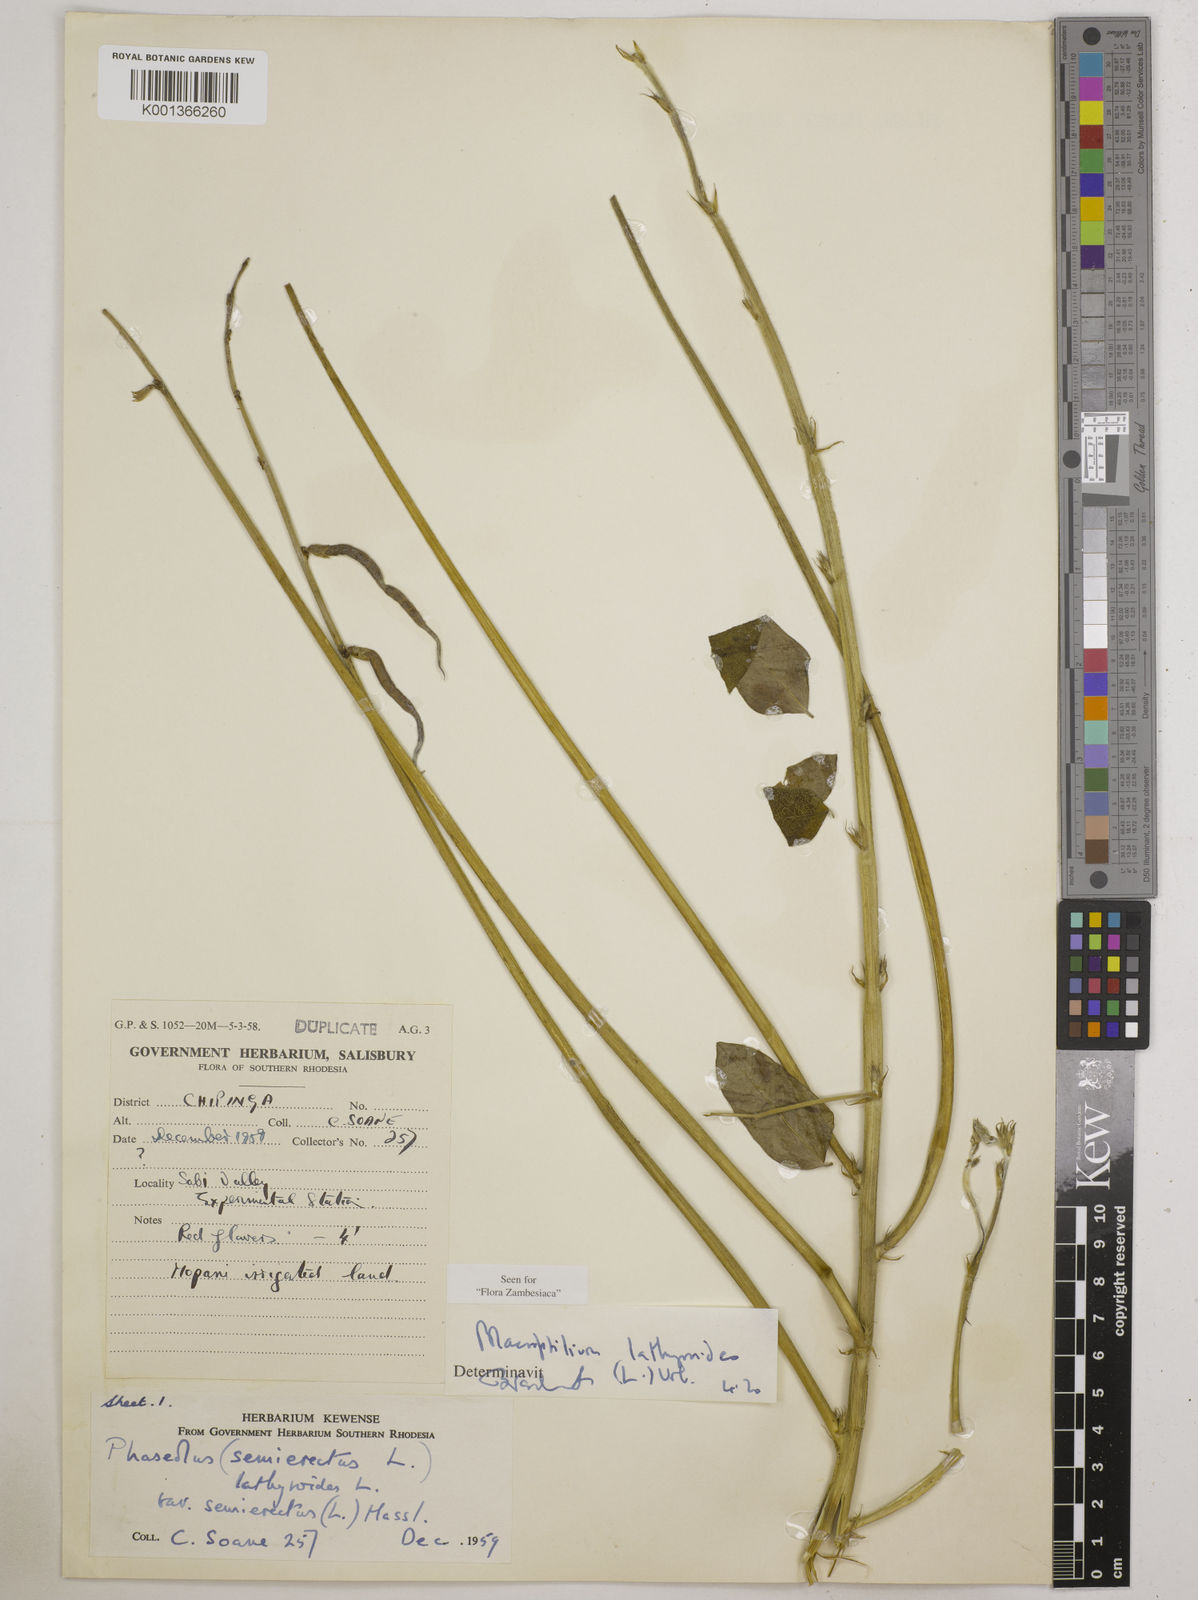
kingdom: Plantae
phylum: Tracheophyta
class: Magnoliopsida
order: Fabales
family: Fabaceae
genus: Macroptilium
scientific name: Macroptilium lathyroides
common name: Wild bushbean
